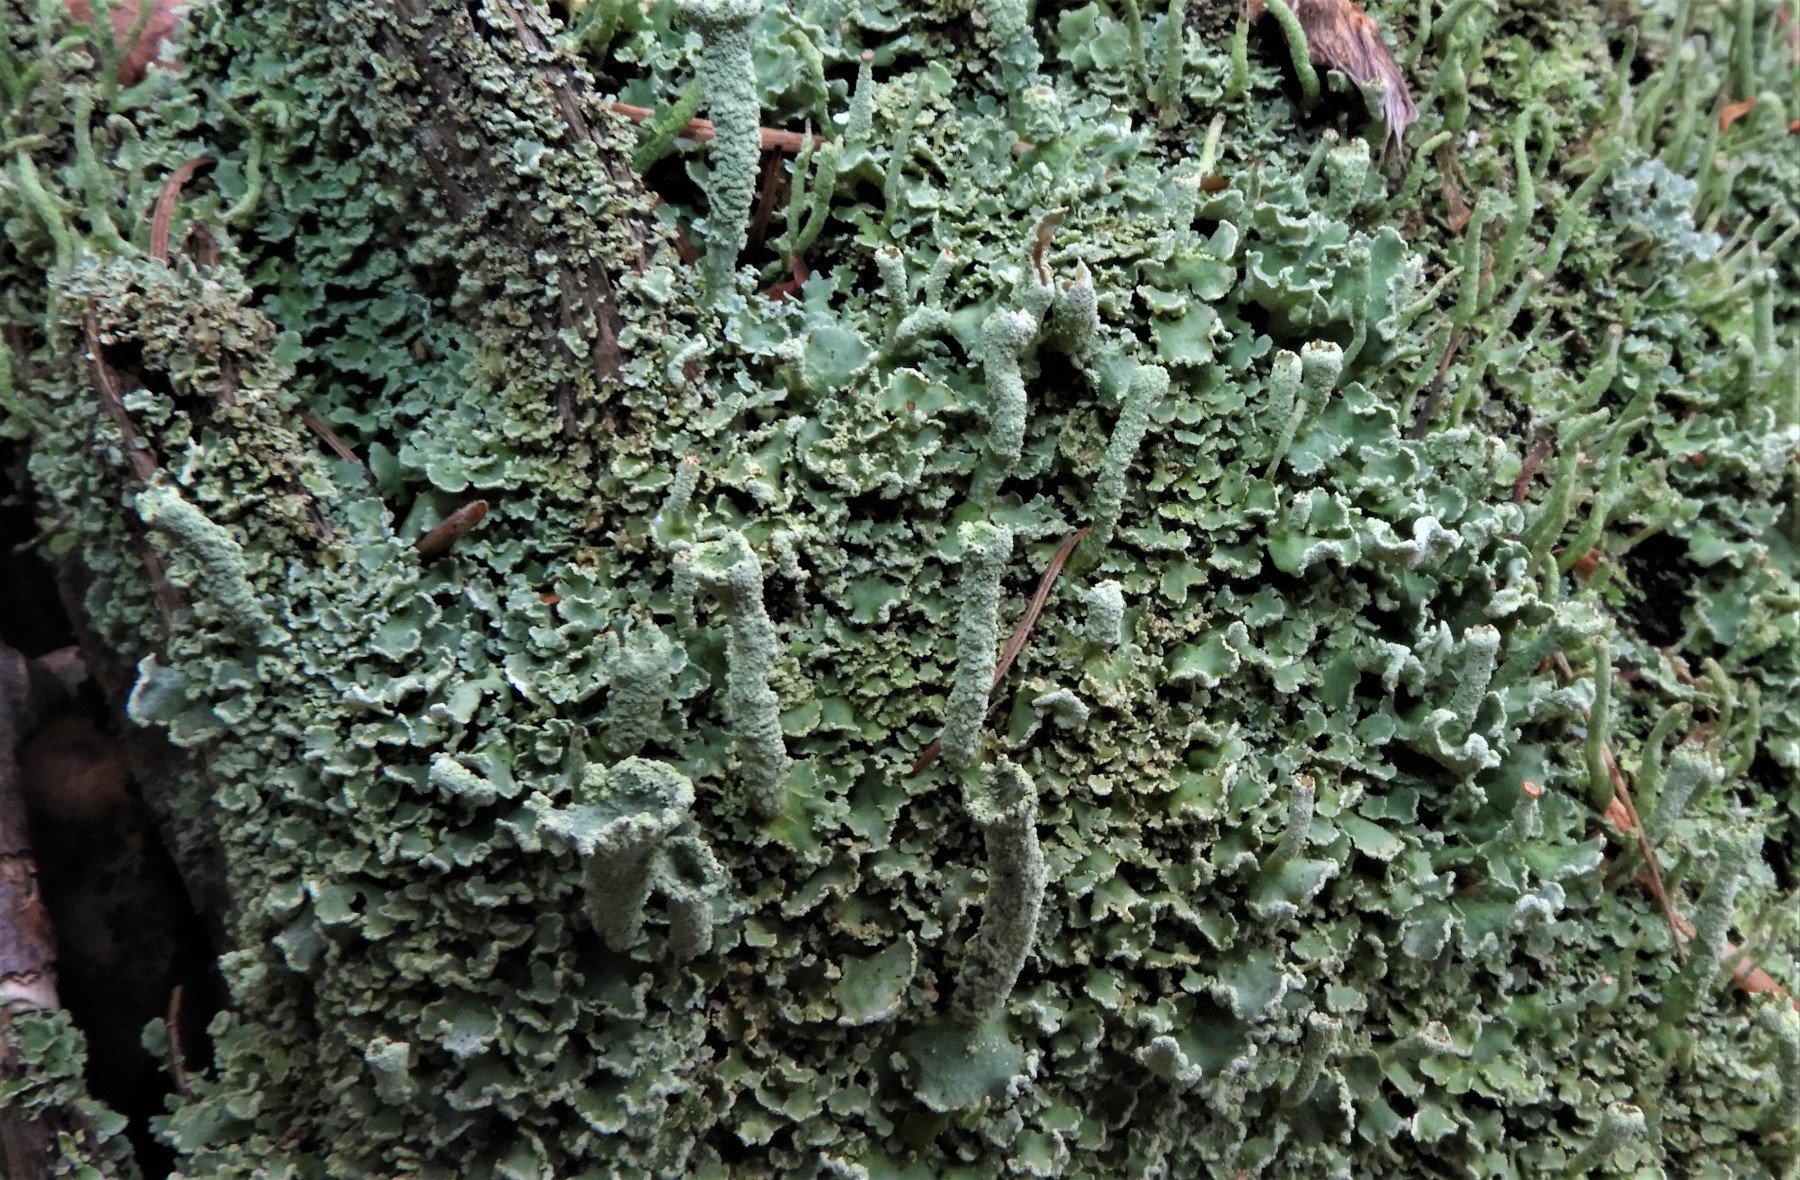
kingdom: Fungi
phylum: Ascomycota
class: Lecanoromycetes
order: Lecanorales
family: Cladoniaceae
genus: Cladonia
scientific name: Cladonia digitata
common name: finger-bægerlav
